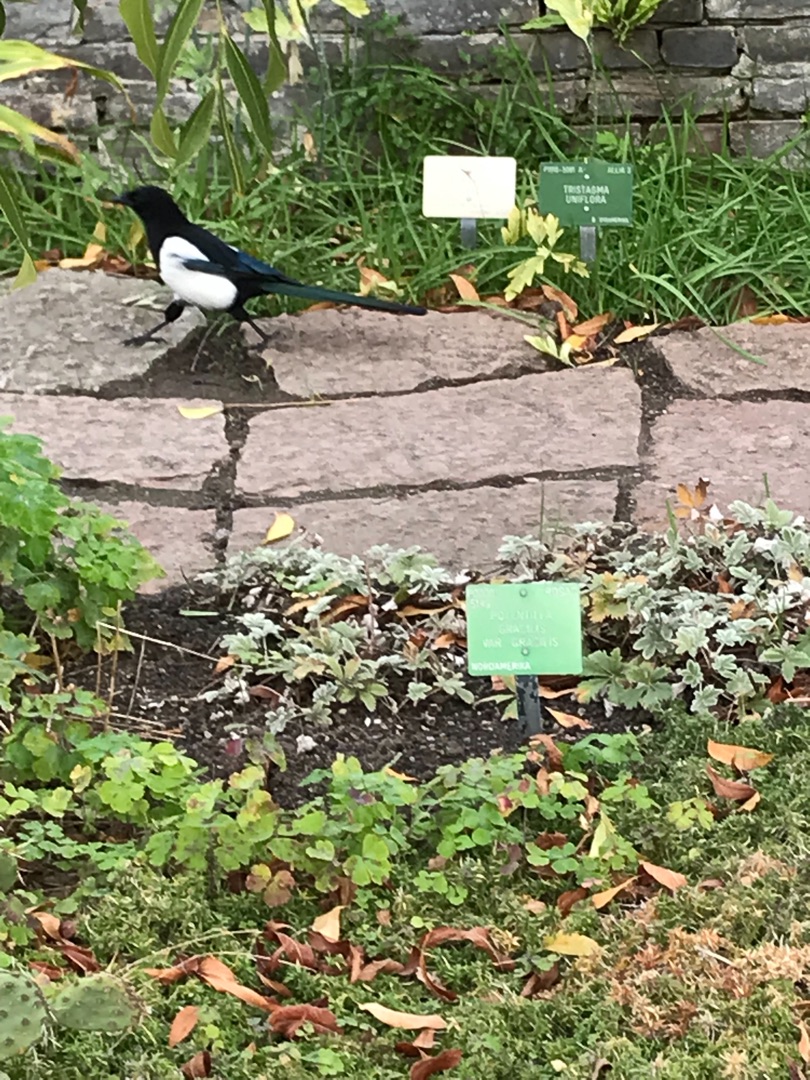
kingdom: Animalia
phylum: Chordata
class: Aves
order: Passeriformes
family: Corvidae
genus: Pica
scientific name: Pica pica
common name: Husskade
